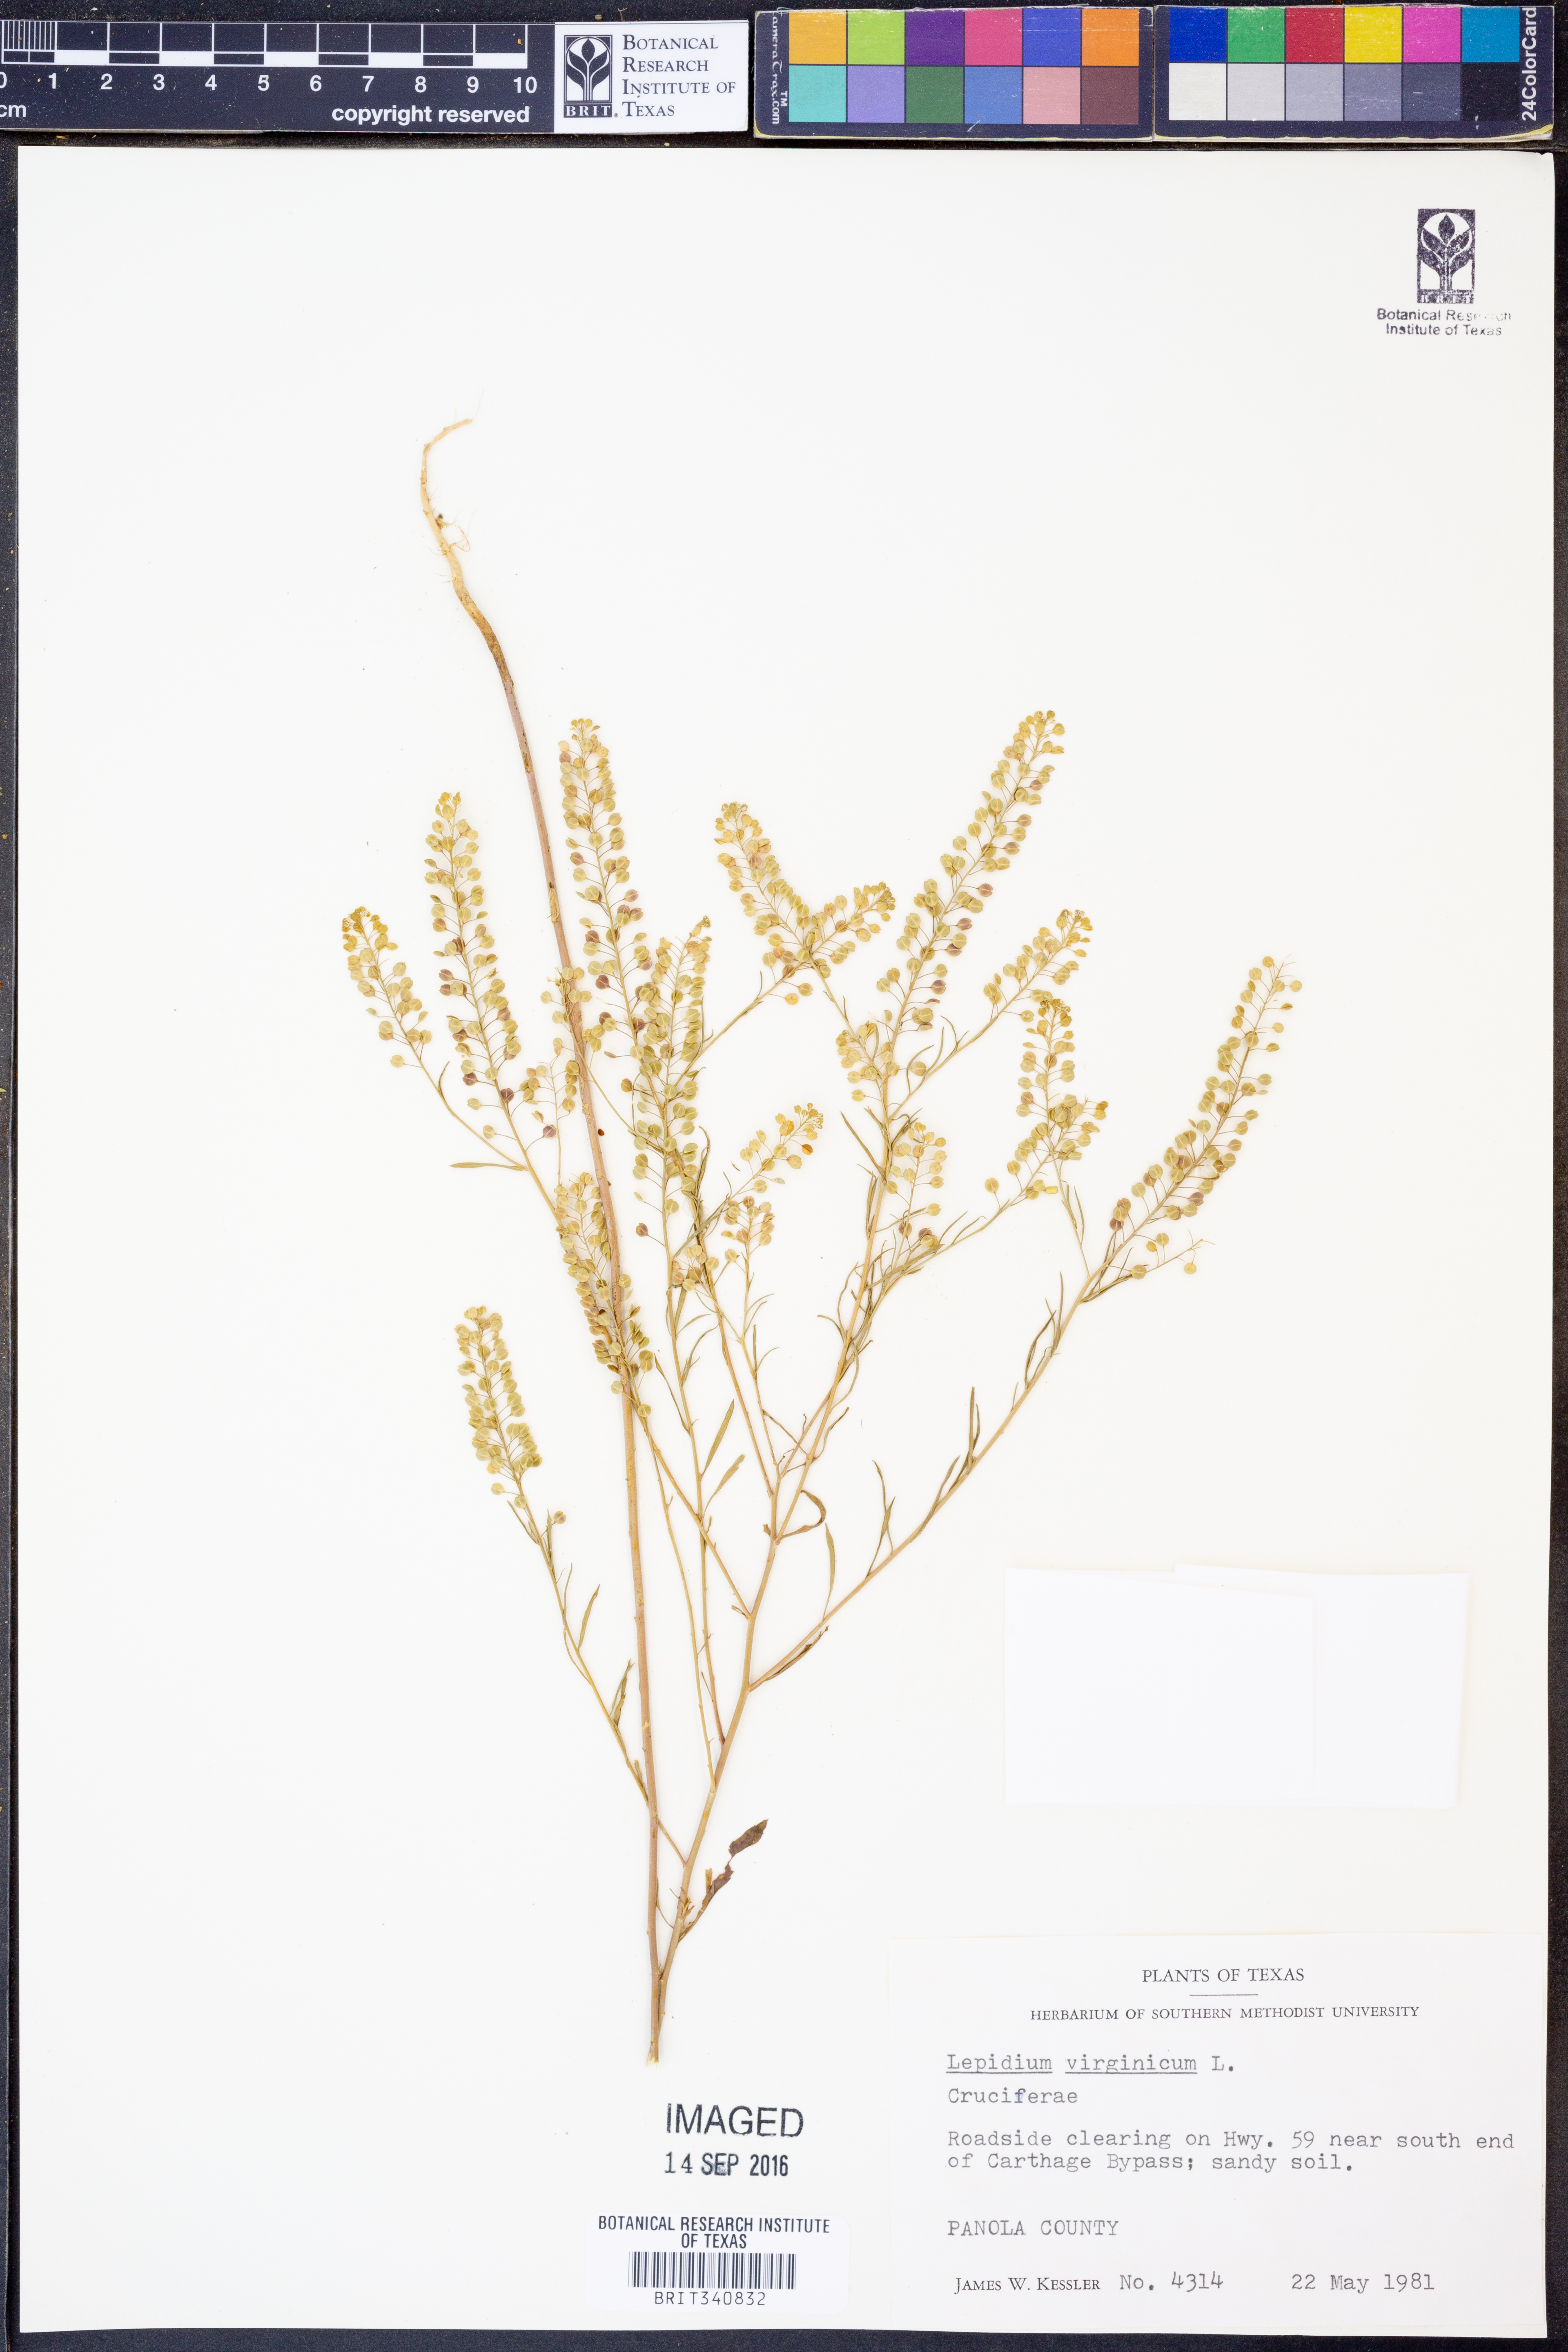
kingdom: Plantae
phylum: Tracheophyta
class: Magnoliopsida
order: Brassicales
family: Brassicaceae
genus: Lepidium
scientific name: Lepidium virginicum
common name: Least pepperwort
